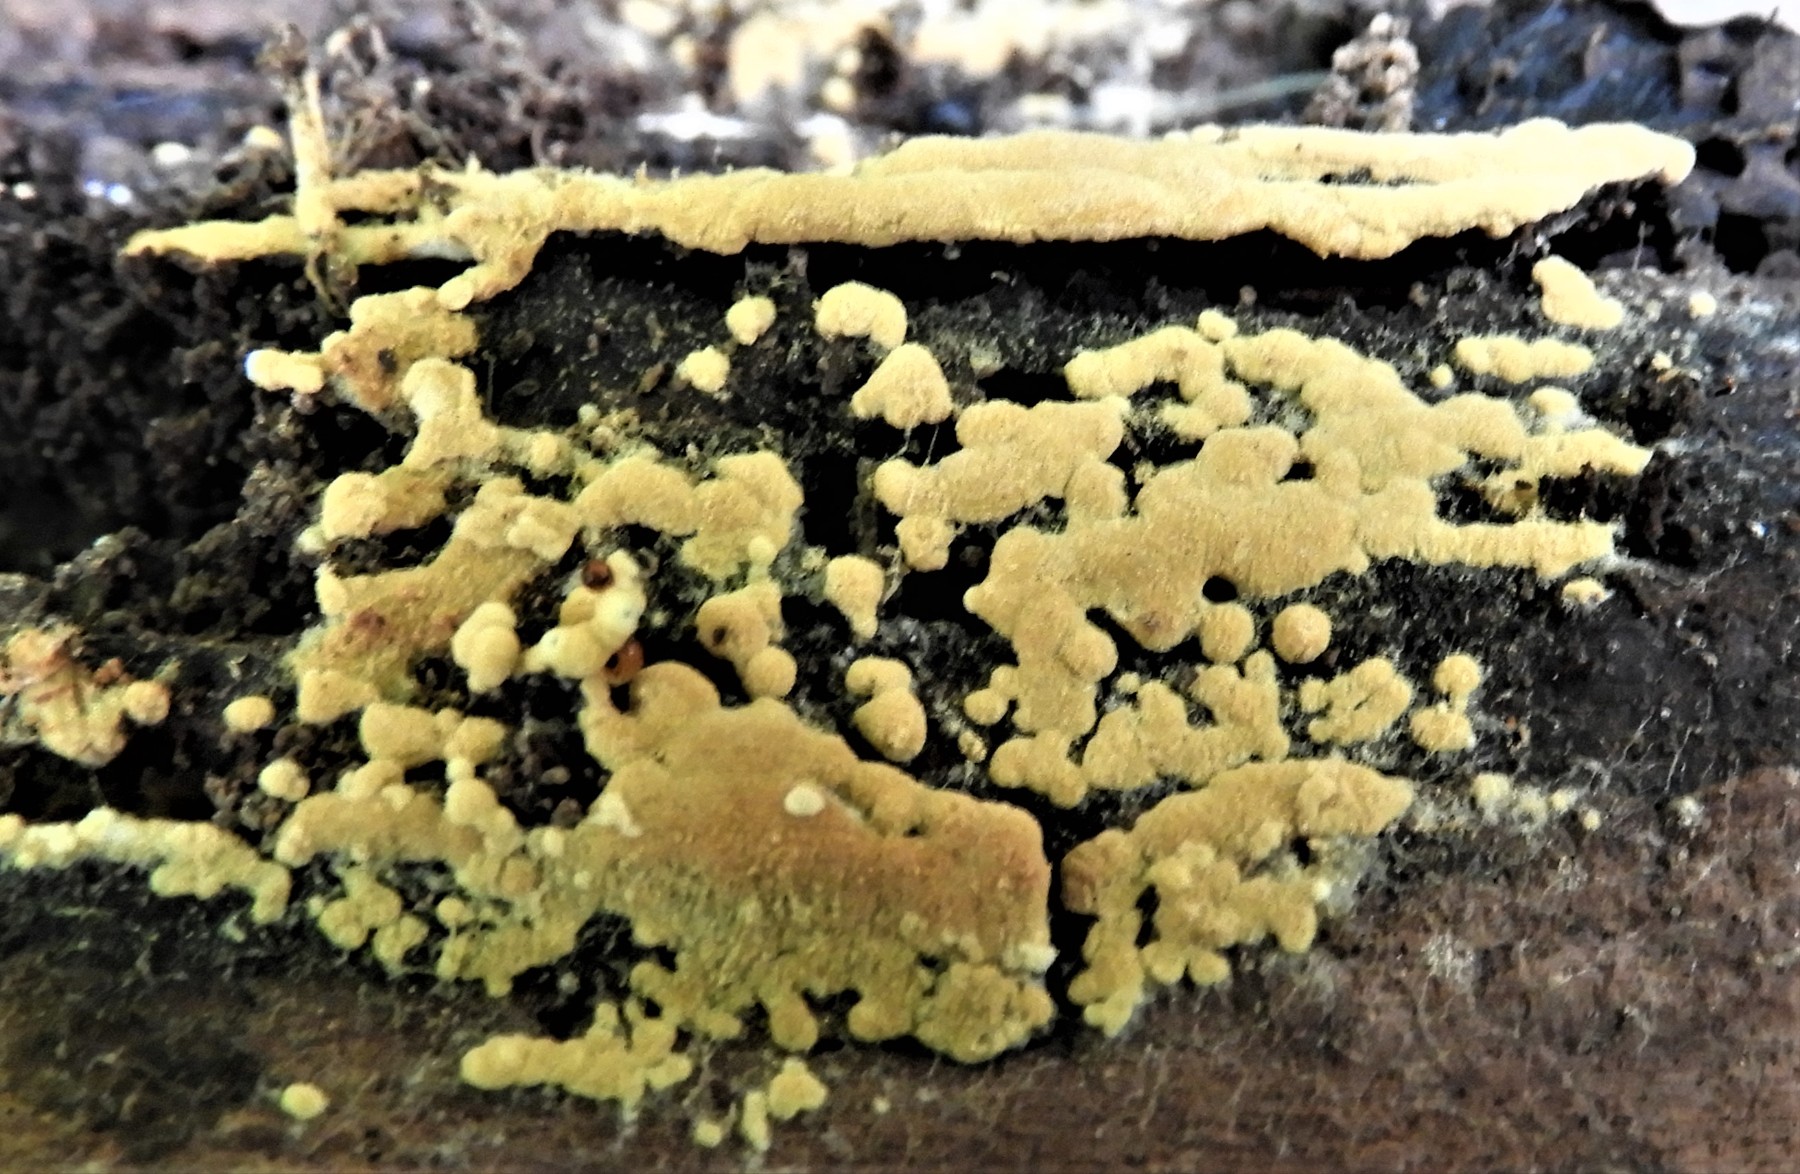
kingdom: Fungi
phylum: Basidiomycota
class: Agaricomycetes
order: Cantharellales
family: Botryobasidiaceae
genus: Botryobasidium
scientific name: Botryobasidium aureum
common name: gylden spindhinde
